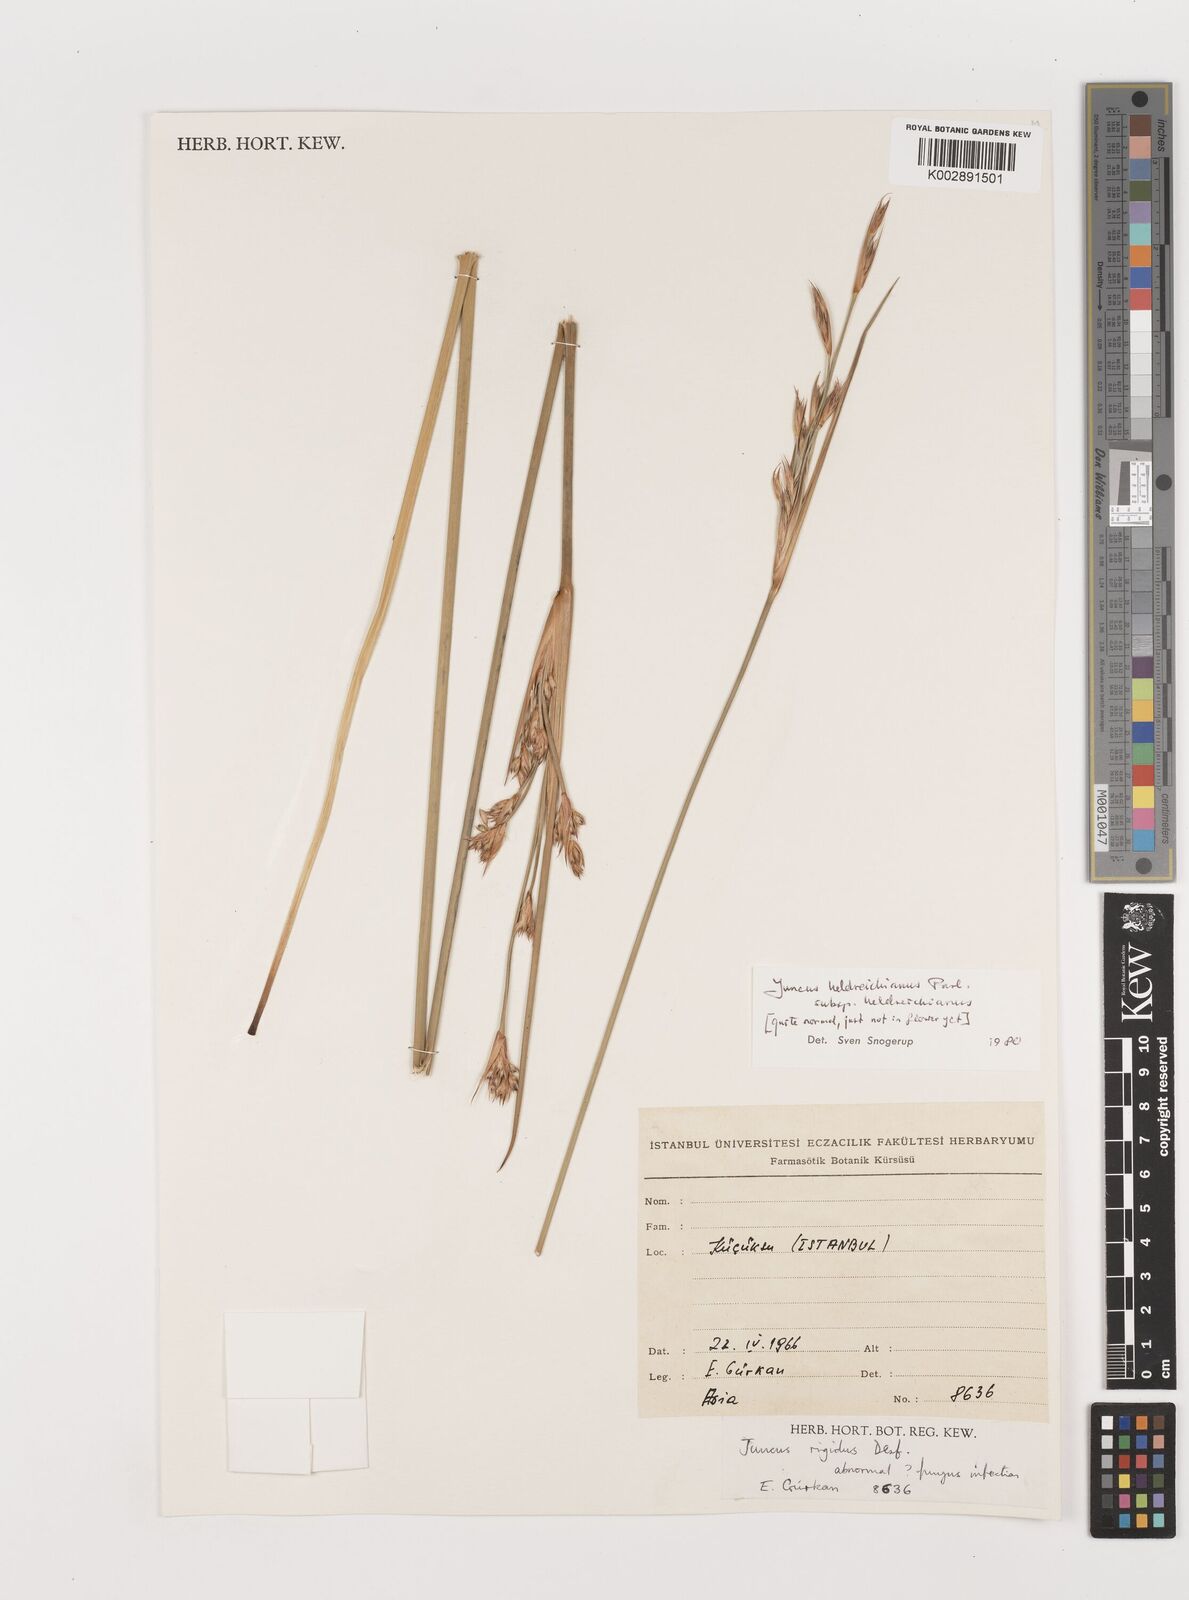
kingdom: Plantae
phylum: Tracheophyta
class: Liliopsida
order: Poales
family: Juncaceae
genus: Juncus
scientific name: Juncus rigidus
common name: Hard sea rush
